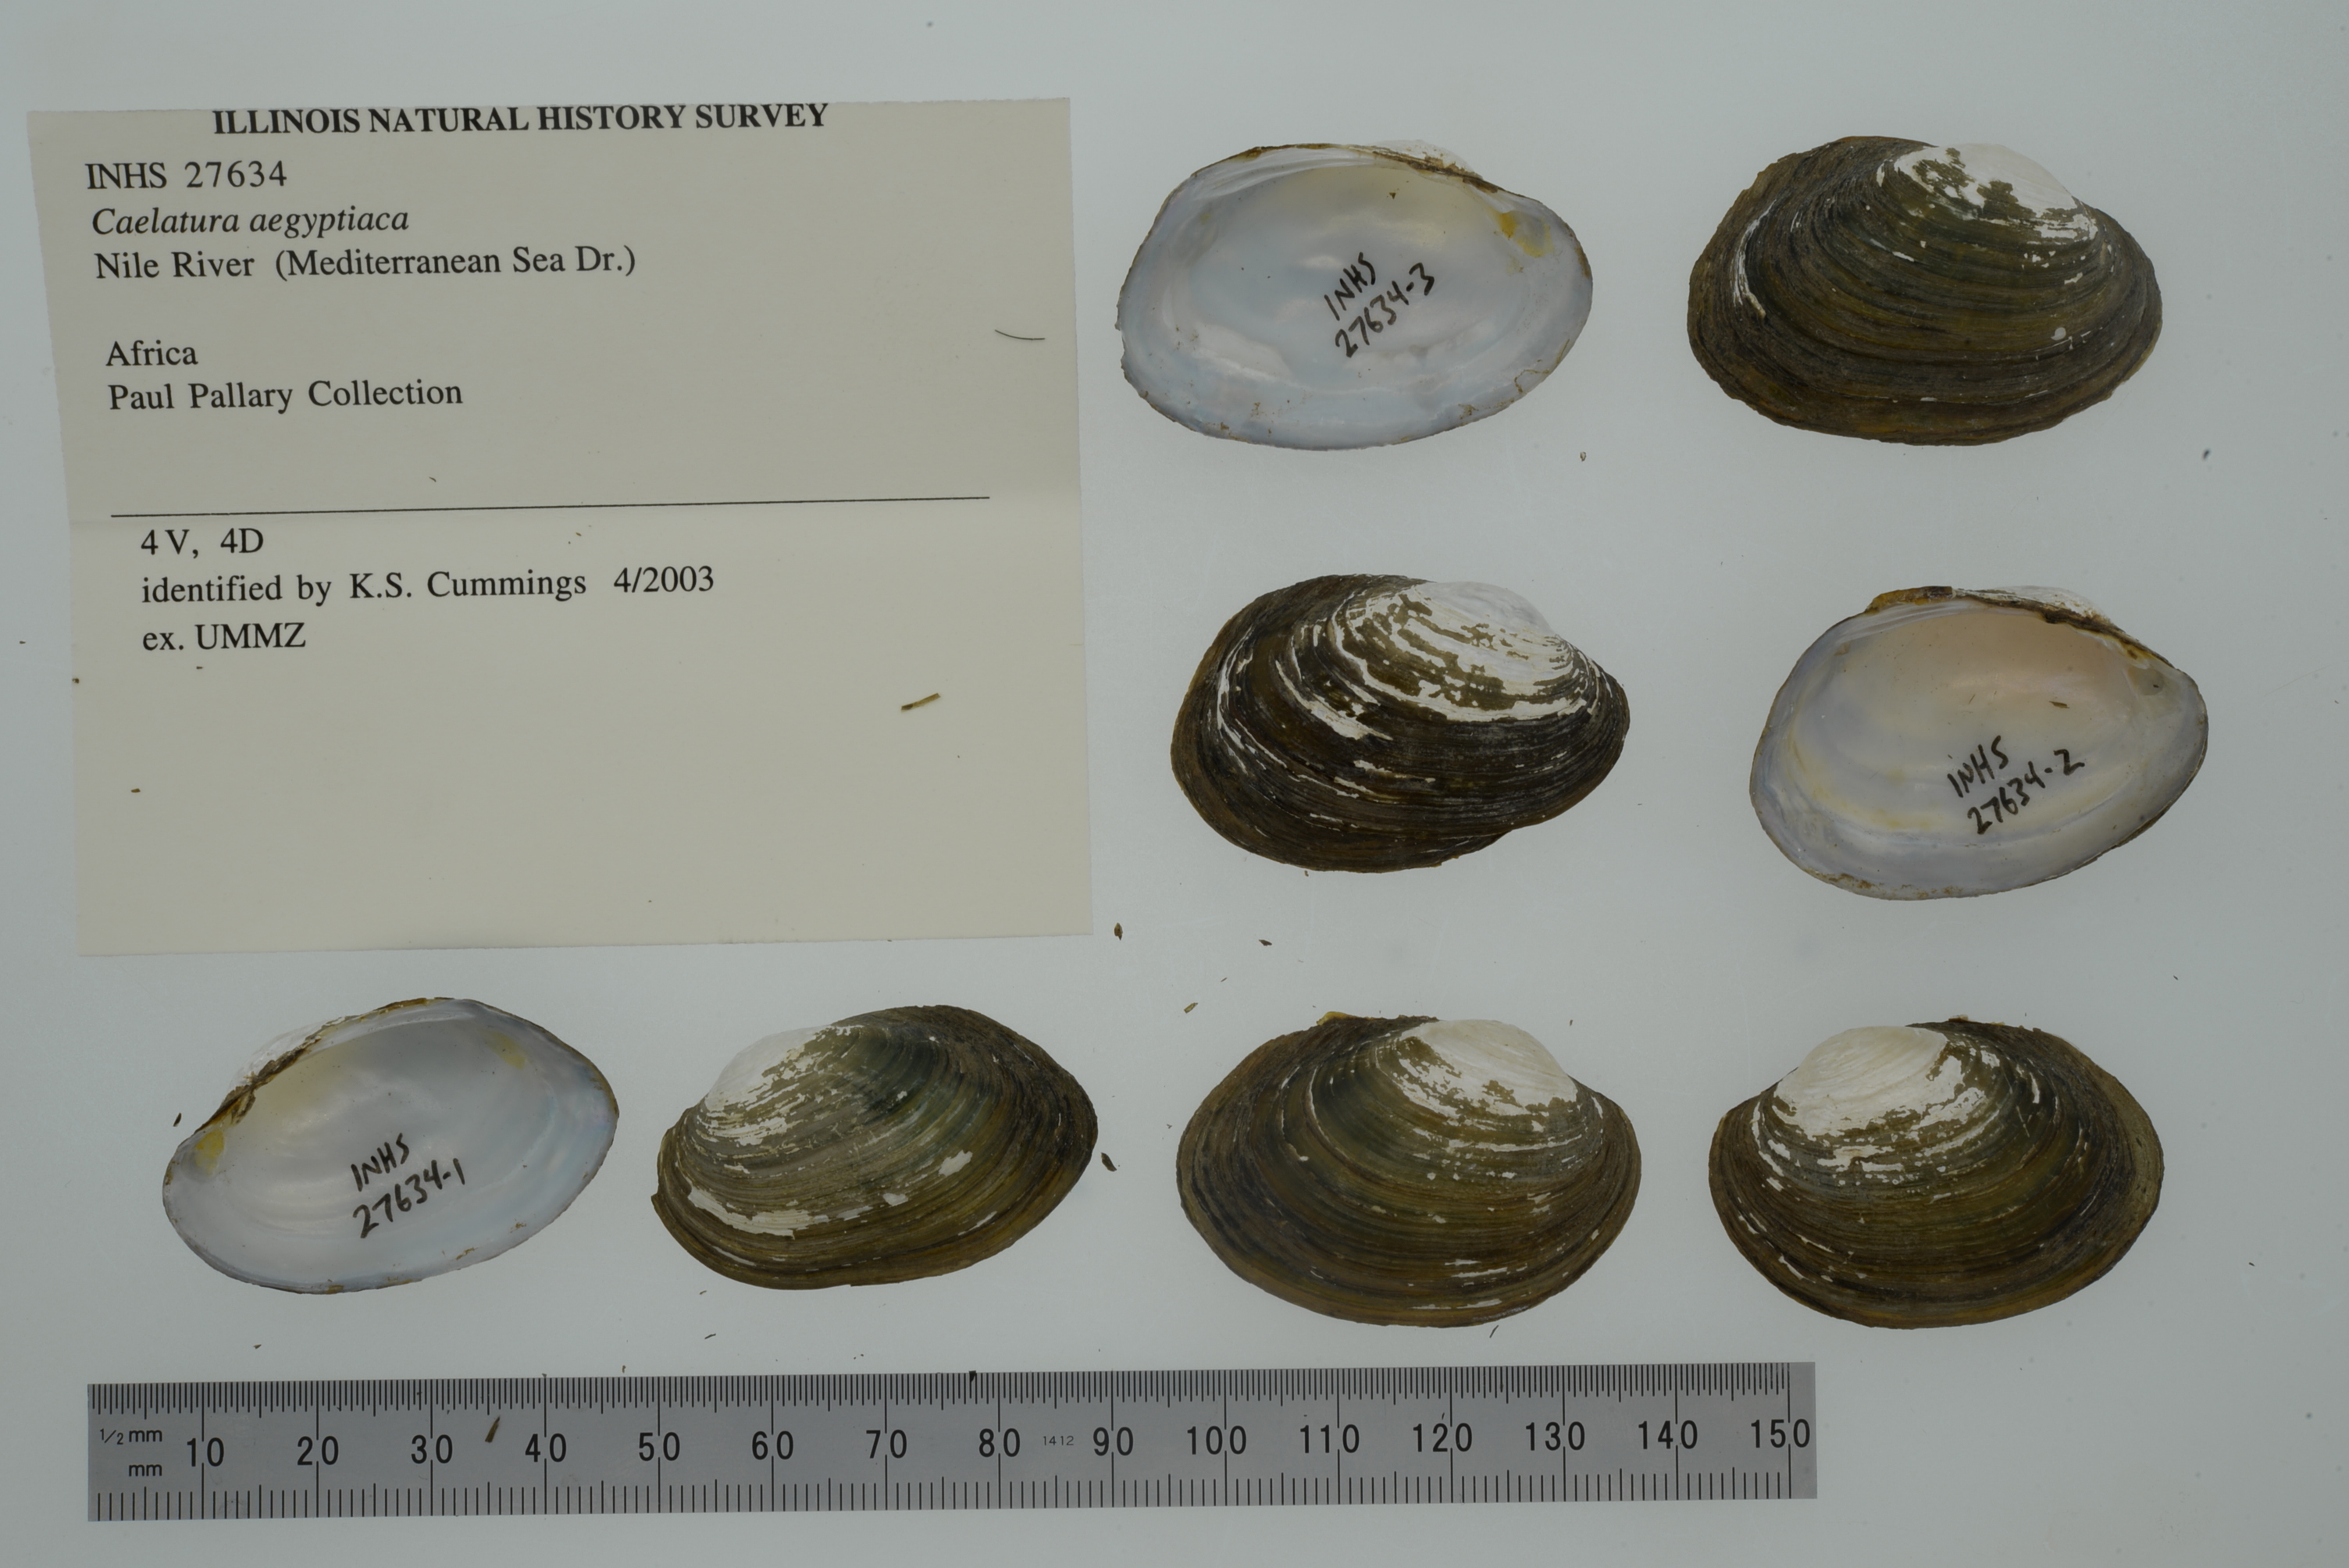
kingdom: Animalia
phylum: Mollusca
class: Bivalvia
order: Unionida
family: Unionidae
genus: Coelatura
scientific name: Coelatura aegyptiaca
